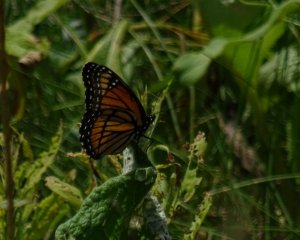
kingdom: Animalia
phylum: Arthropoda
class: Insecta
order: Lepidoptera
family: Nymphalidae
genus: Limenitis
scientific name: Limenitis archippus
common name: Viceroy
